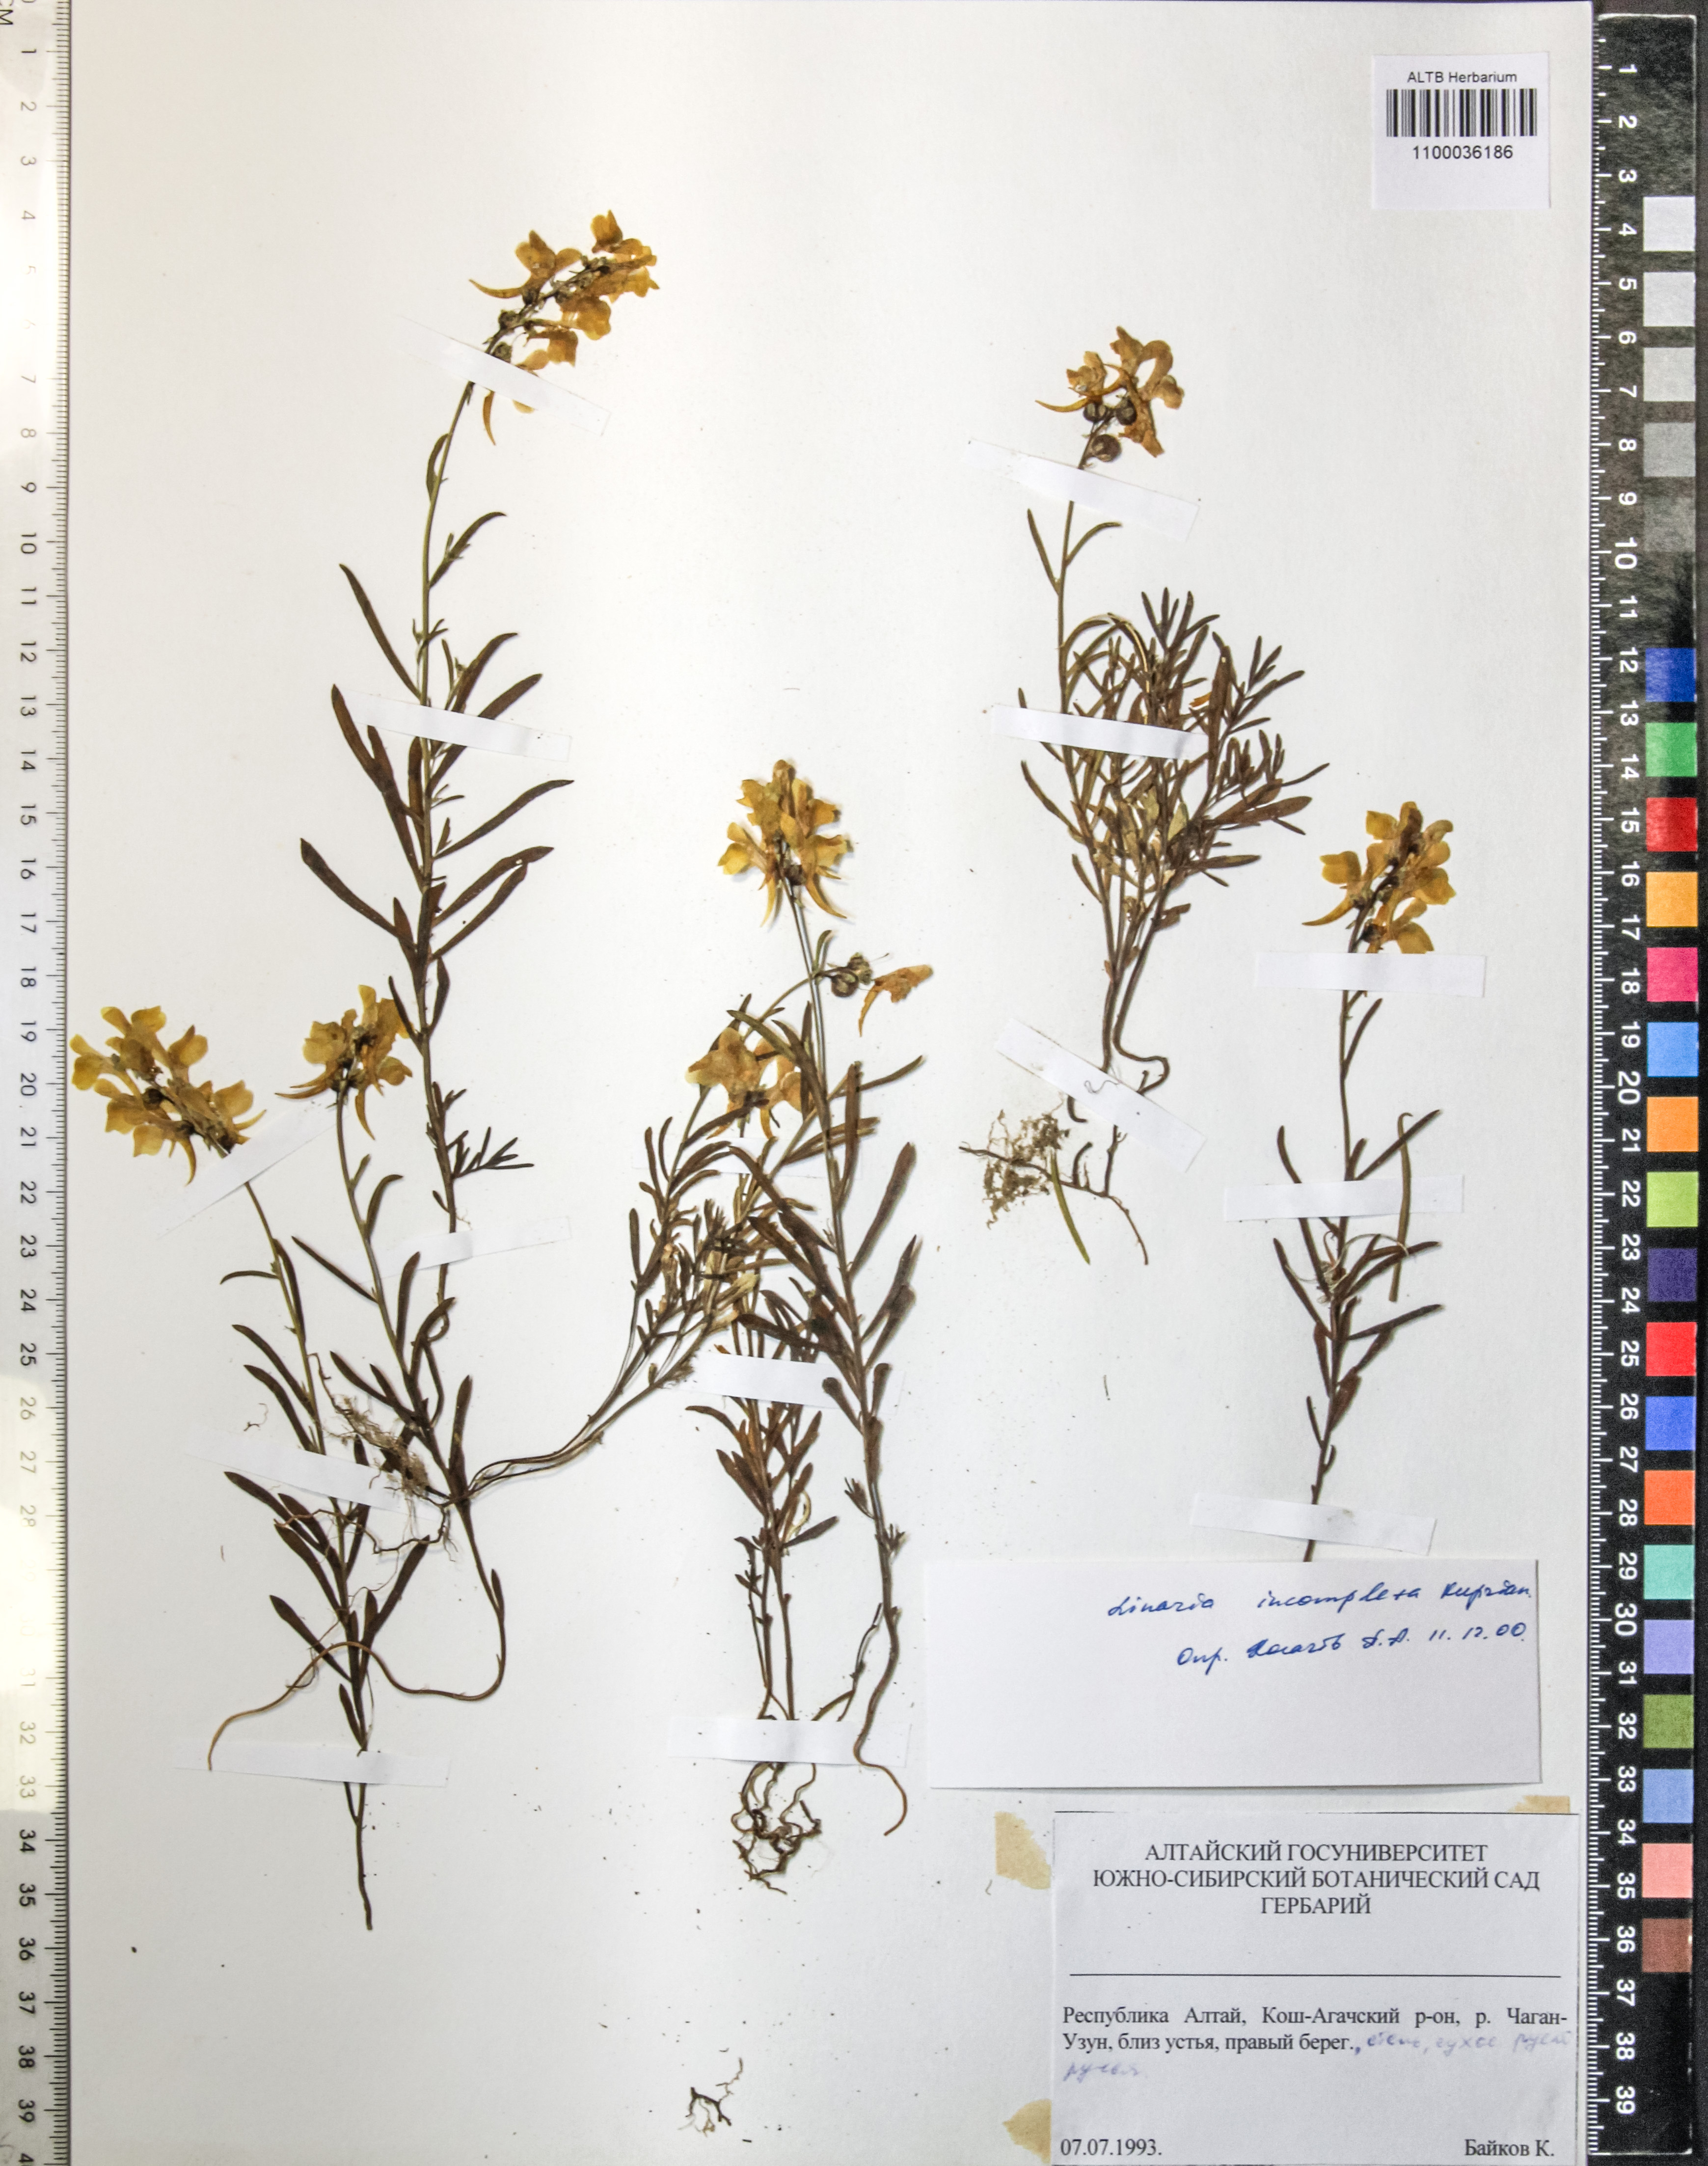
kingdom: Plantae
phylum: Tracheophyta
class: Magnoliopsida
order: Lamiales
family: Plantaginaceae
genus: Linaria
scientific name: Linaria incompleta
